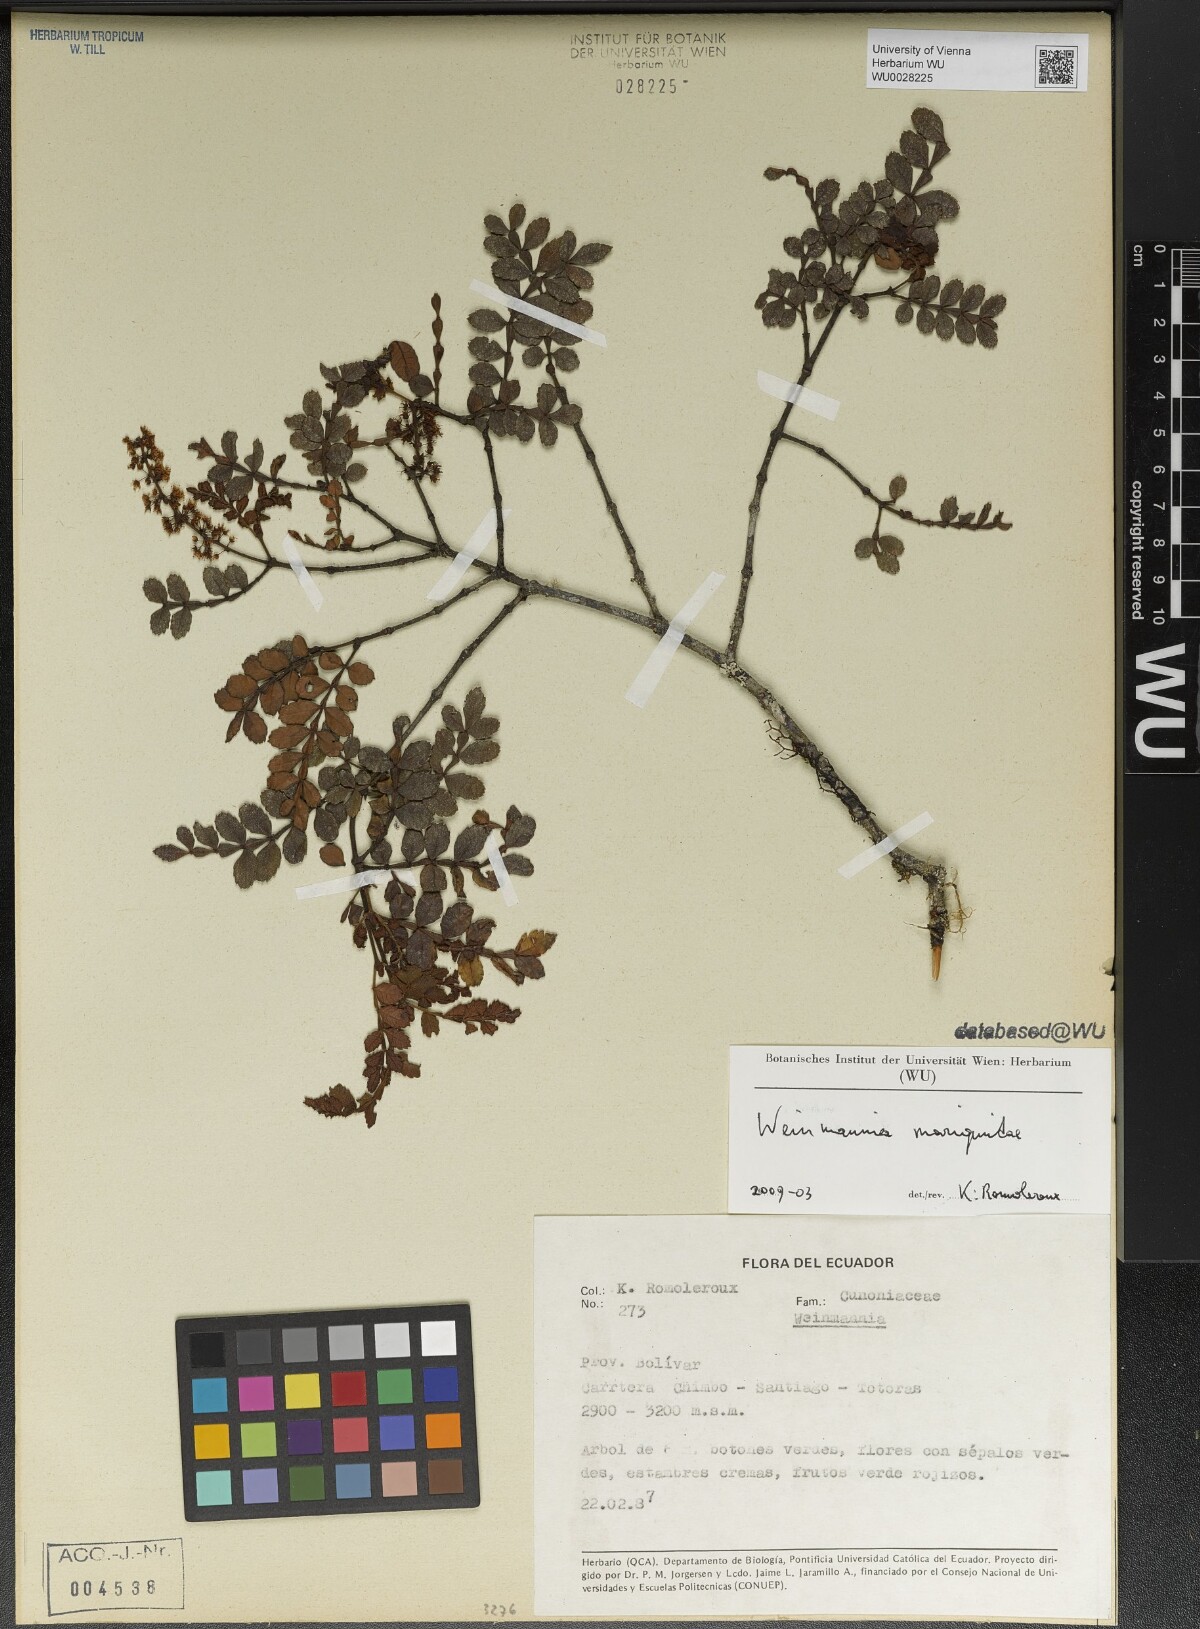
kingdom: Plantae
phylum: Tracheophyta
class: Magnoliopsida
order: Oxalidales
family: Cunoniaceae
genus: Weinmannia
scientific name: Weinmannia mariquitae
